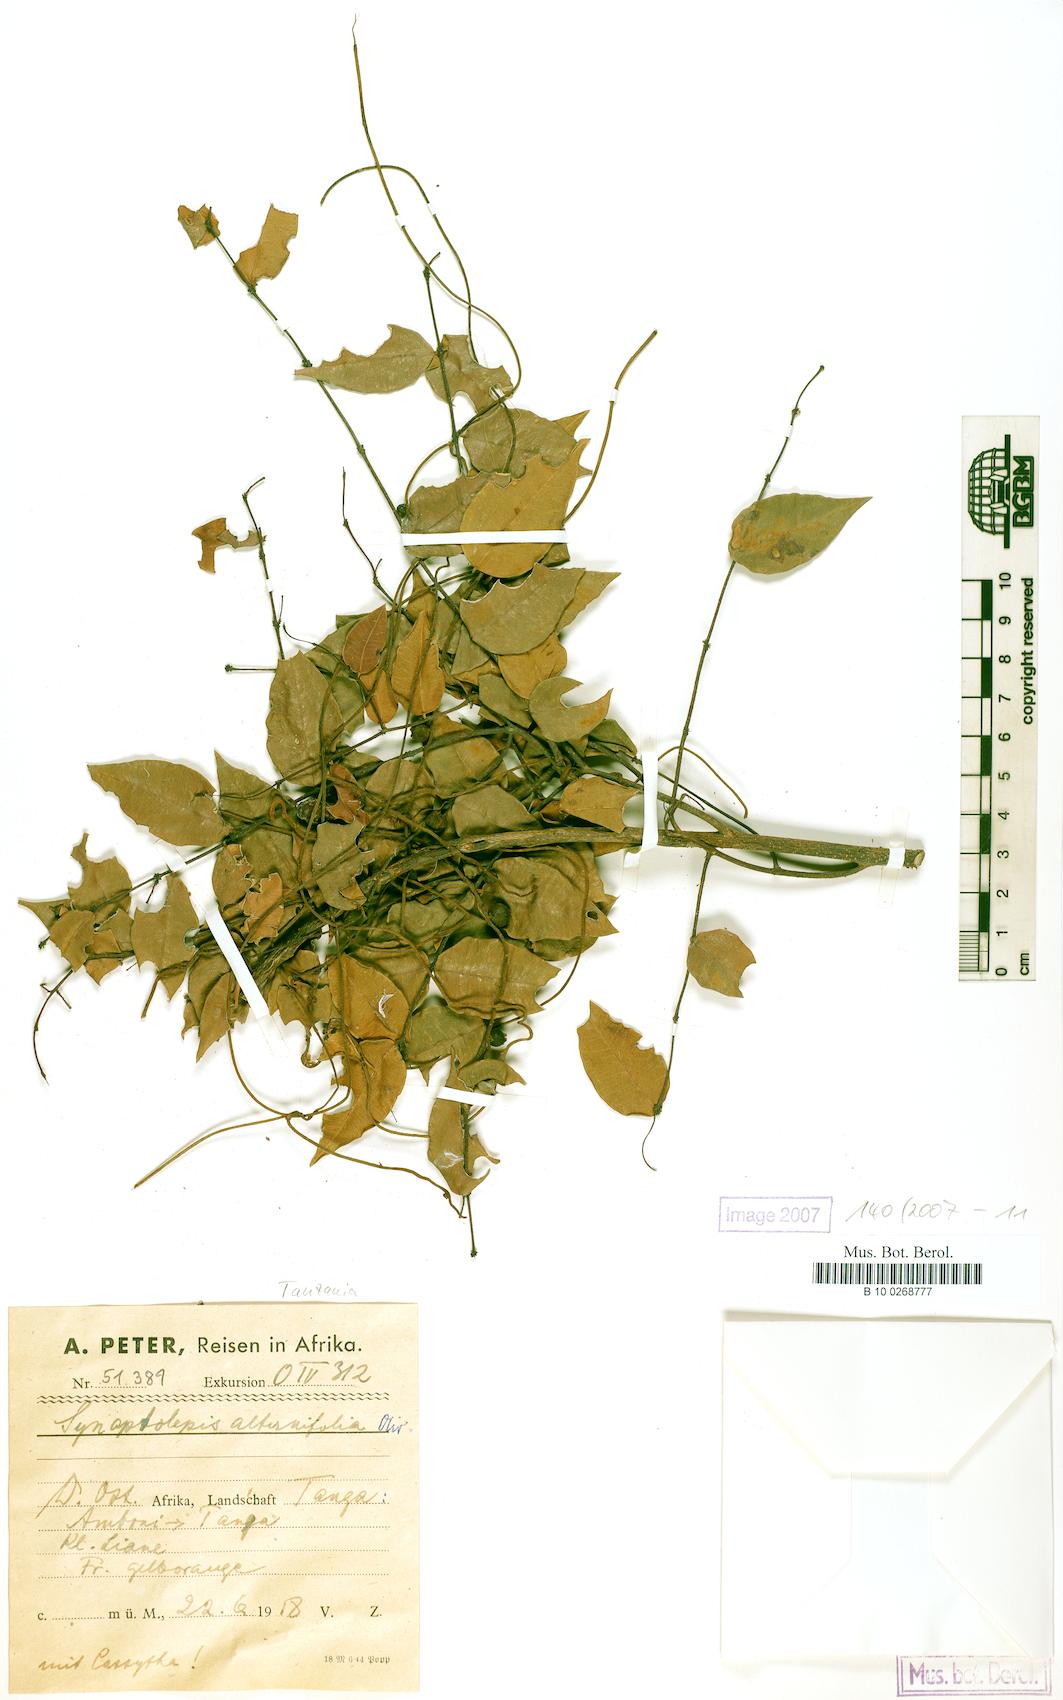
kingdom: Plantae
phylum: Tracheophyta
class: Magnoliopsida
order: Malvales
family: Thymelaeaceae
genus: Synaptolepis
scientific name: Synaptolepis alternifolia
